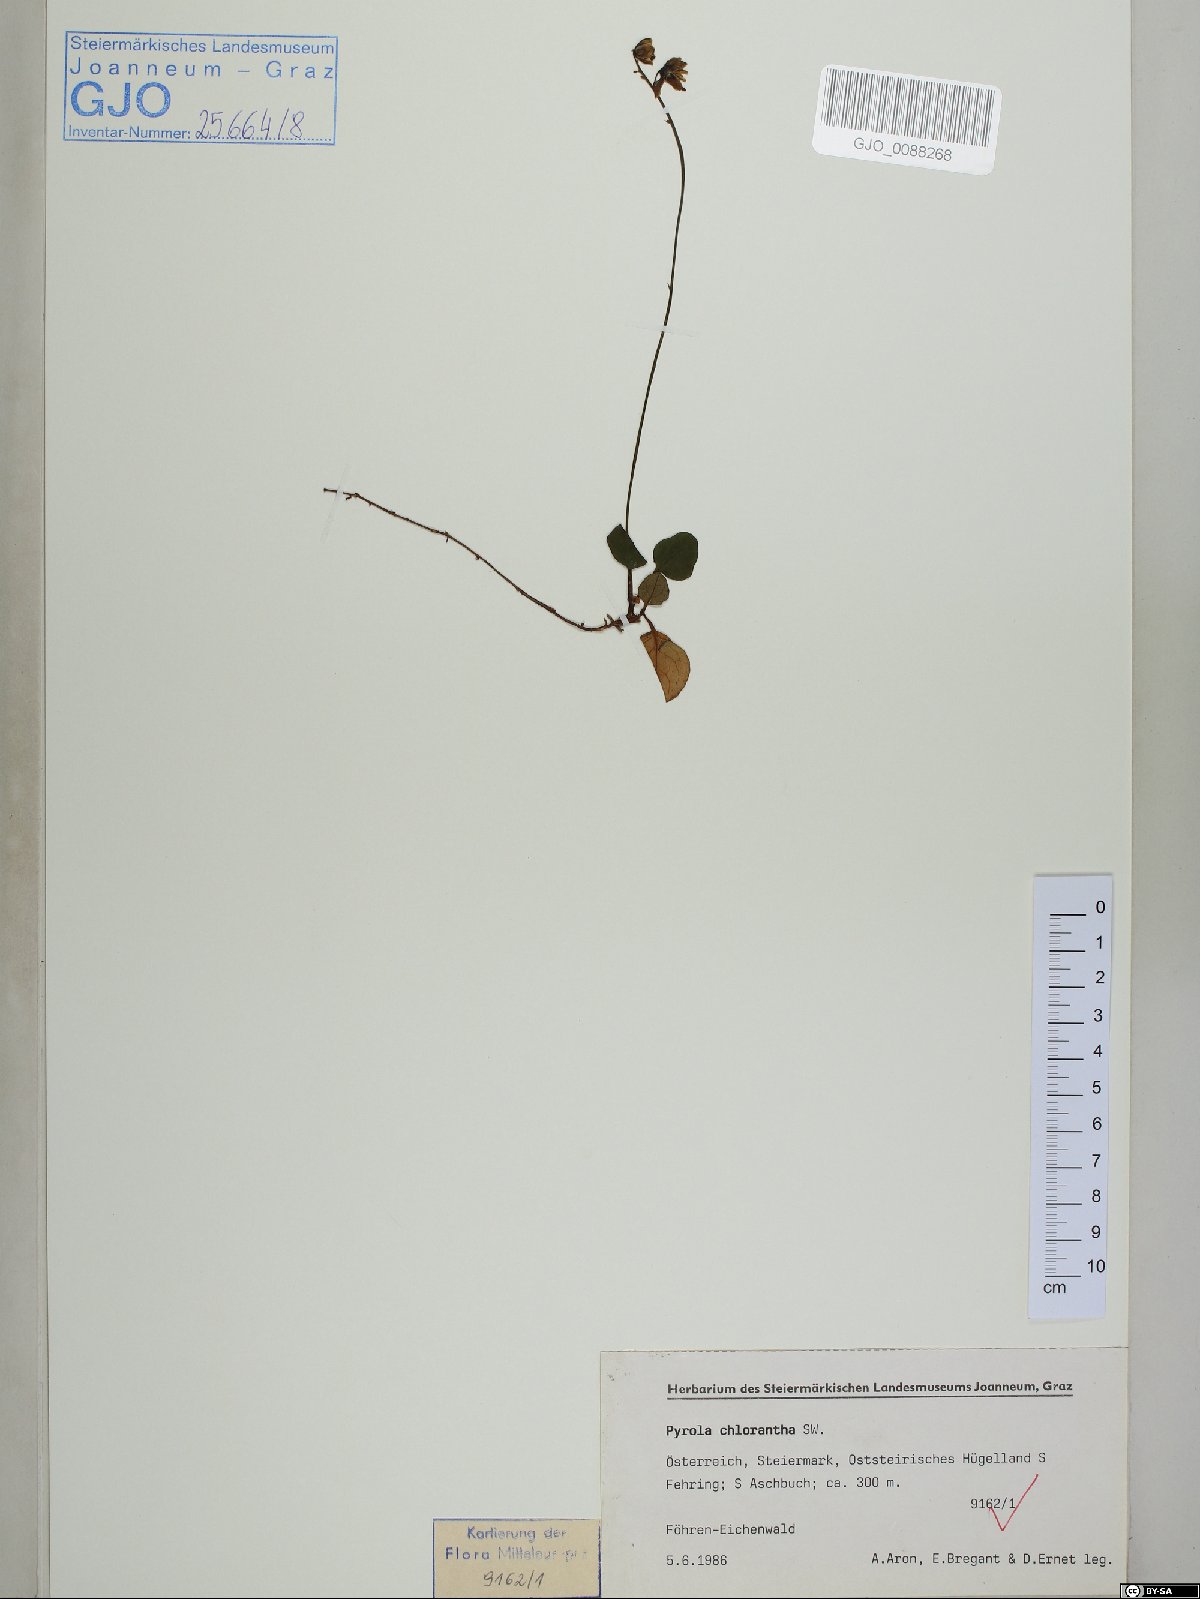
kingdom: Plantae
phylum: Tracheophyta
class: Magnoliopsida
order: Ericales
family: Ericaceae
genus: Pyrola
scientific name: Pyrola chlorantha
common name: Green wintergreen
